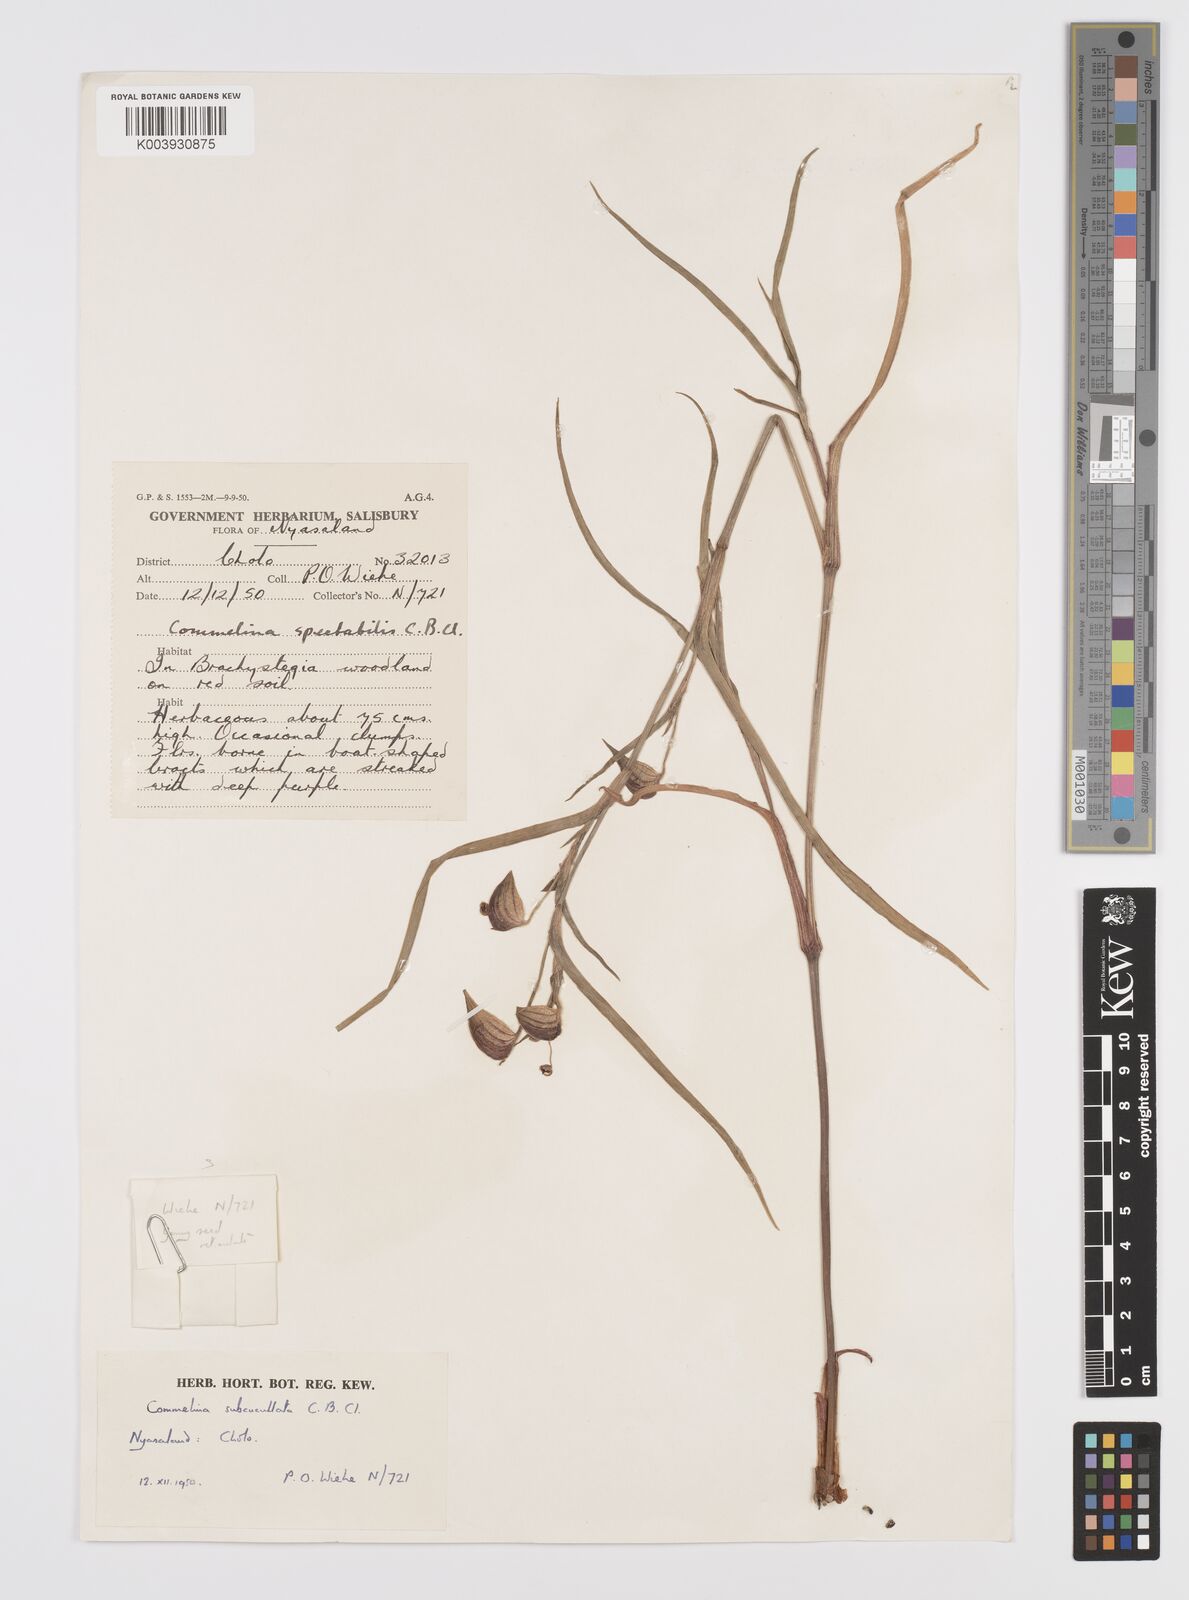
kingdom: Plantae
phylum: Tracheophyta
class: Liliopsida
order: Commelinales
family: Commelinaceae
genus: Commelina
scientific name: Commelina subcucullata
